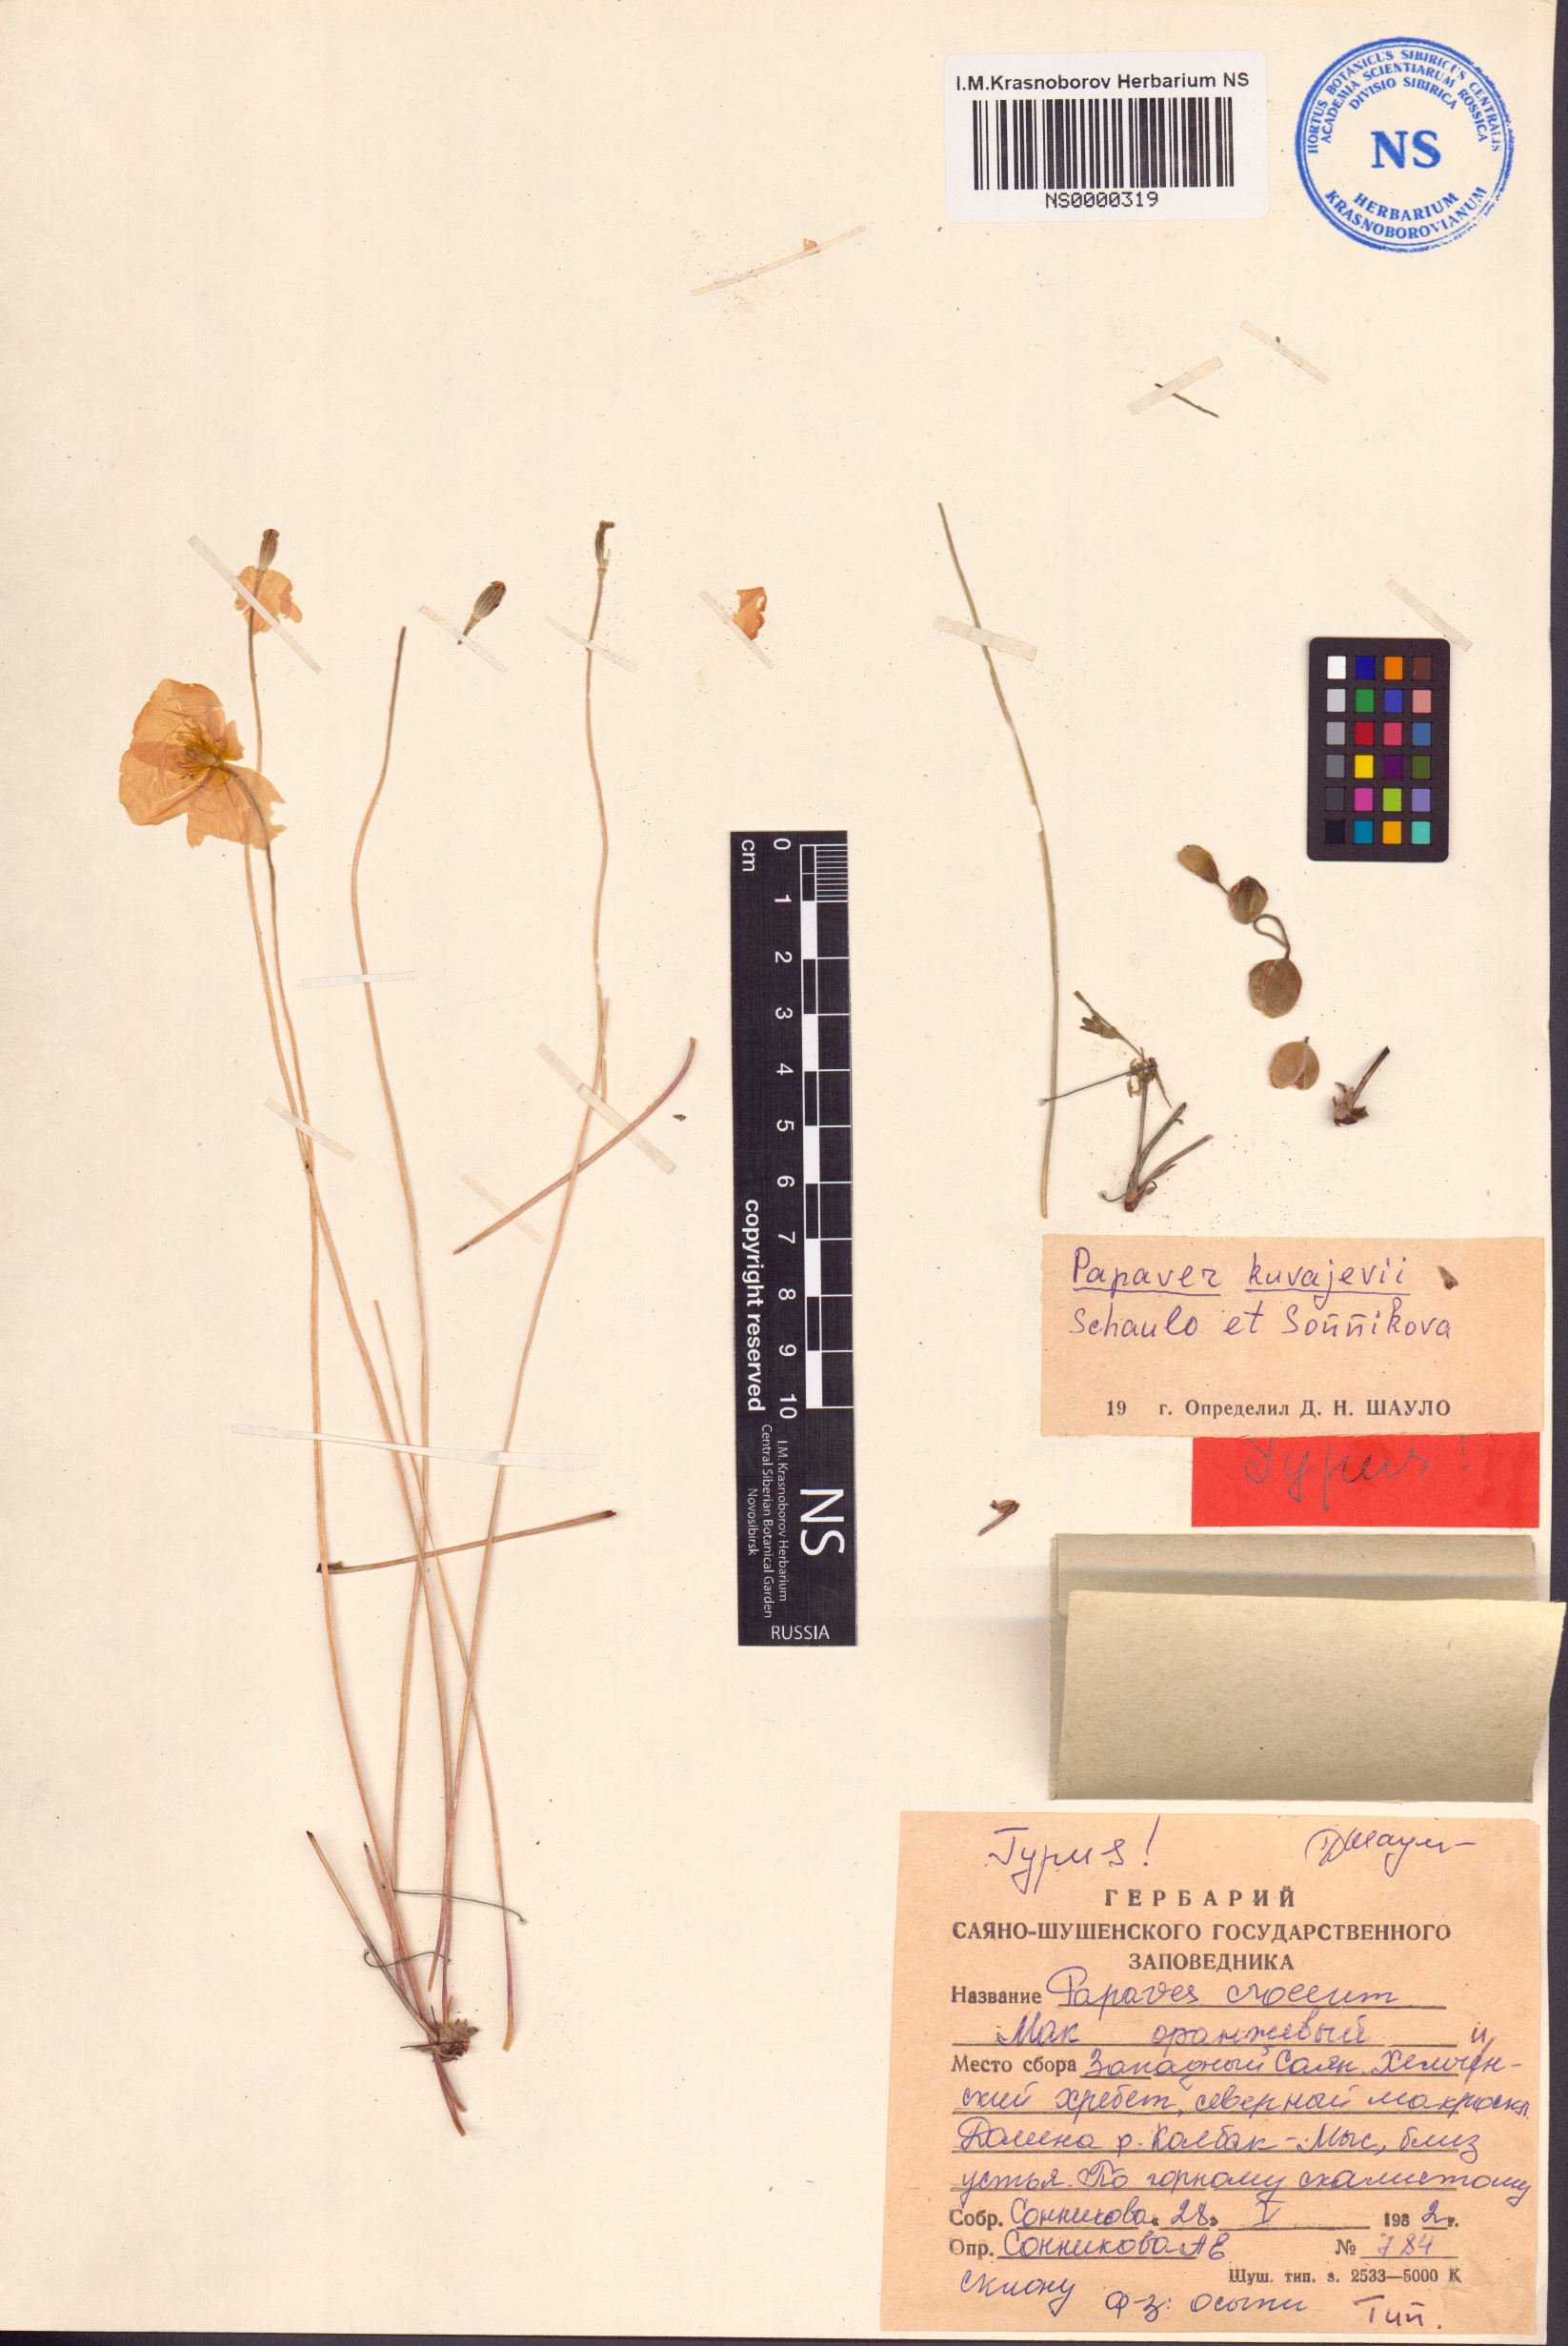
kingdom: Plantae
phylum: Tracheophyta
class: Magnoliopsida
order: Ranunculales
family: Papaveraceae
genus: Papaver
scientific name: Papaver kuvajevii
